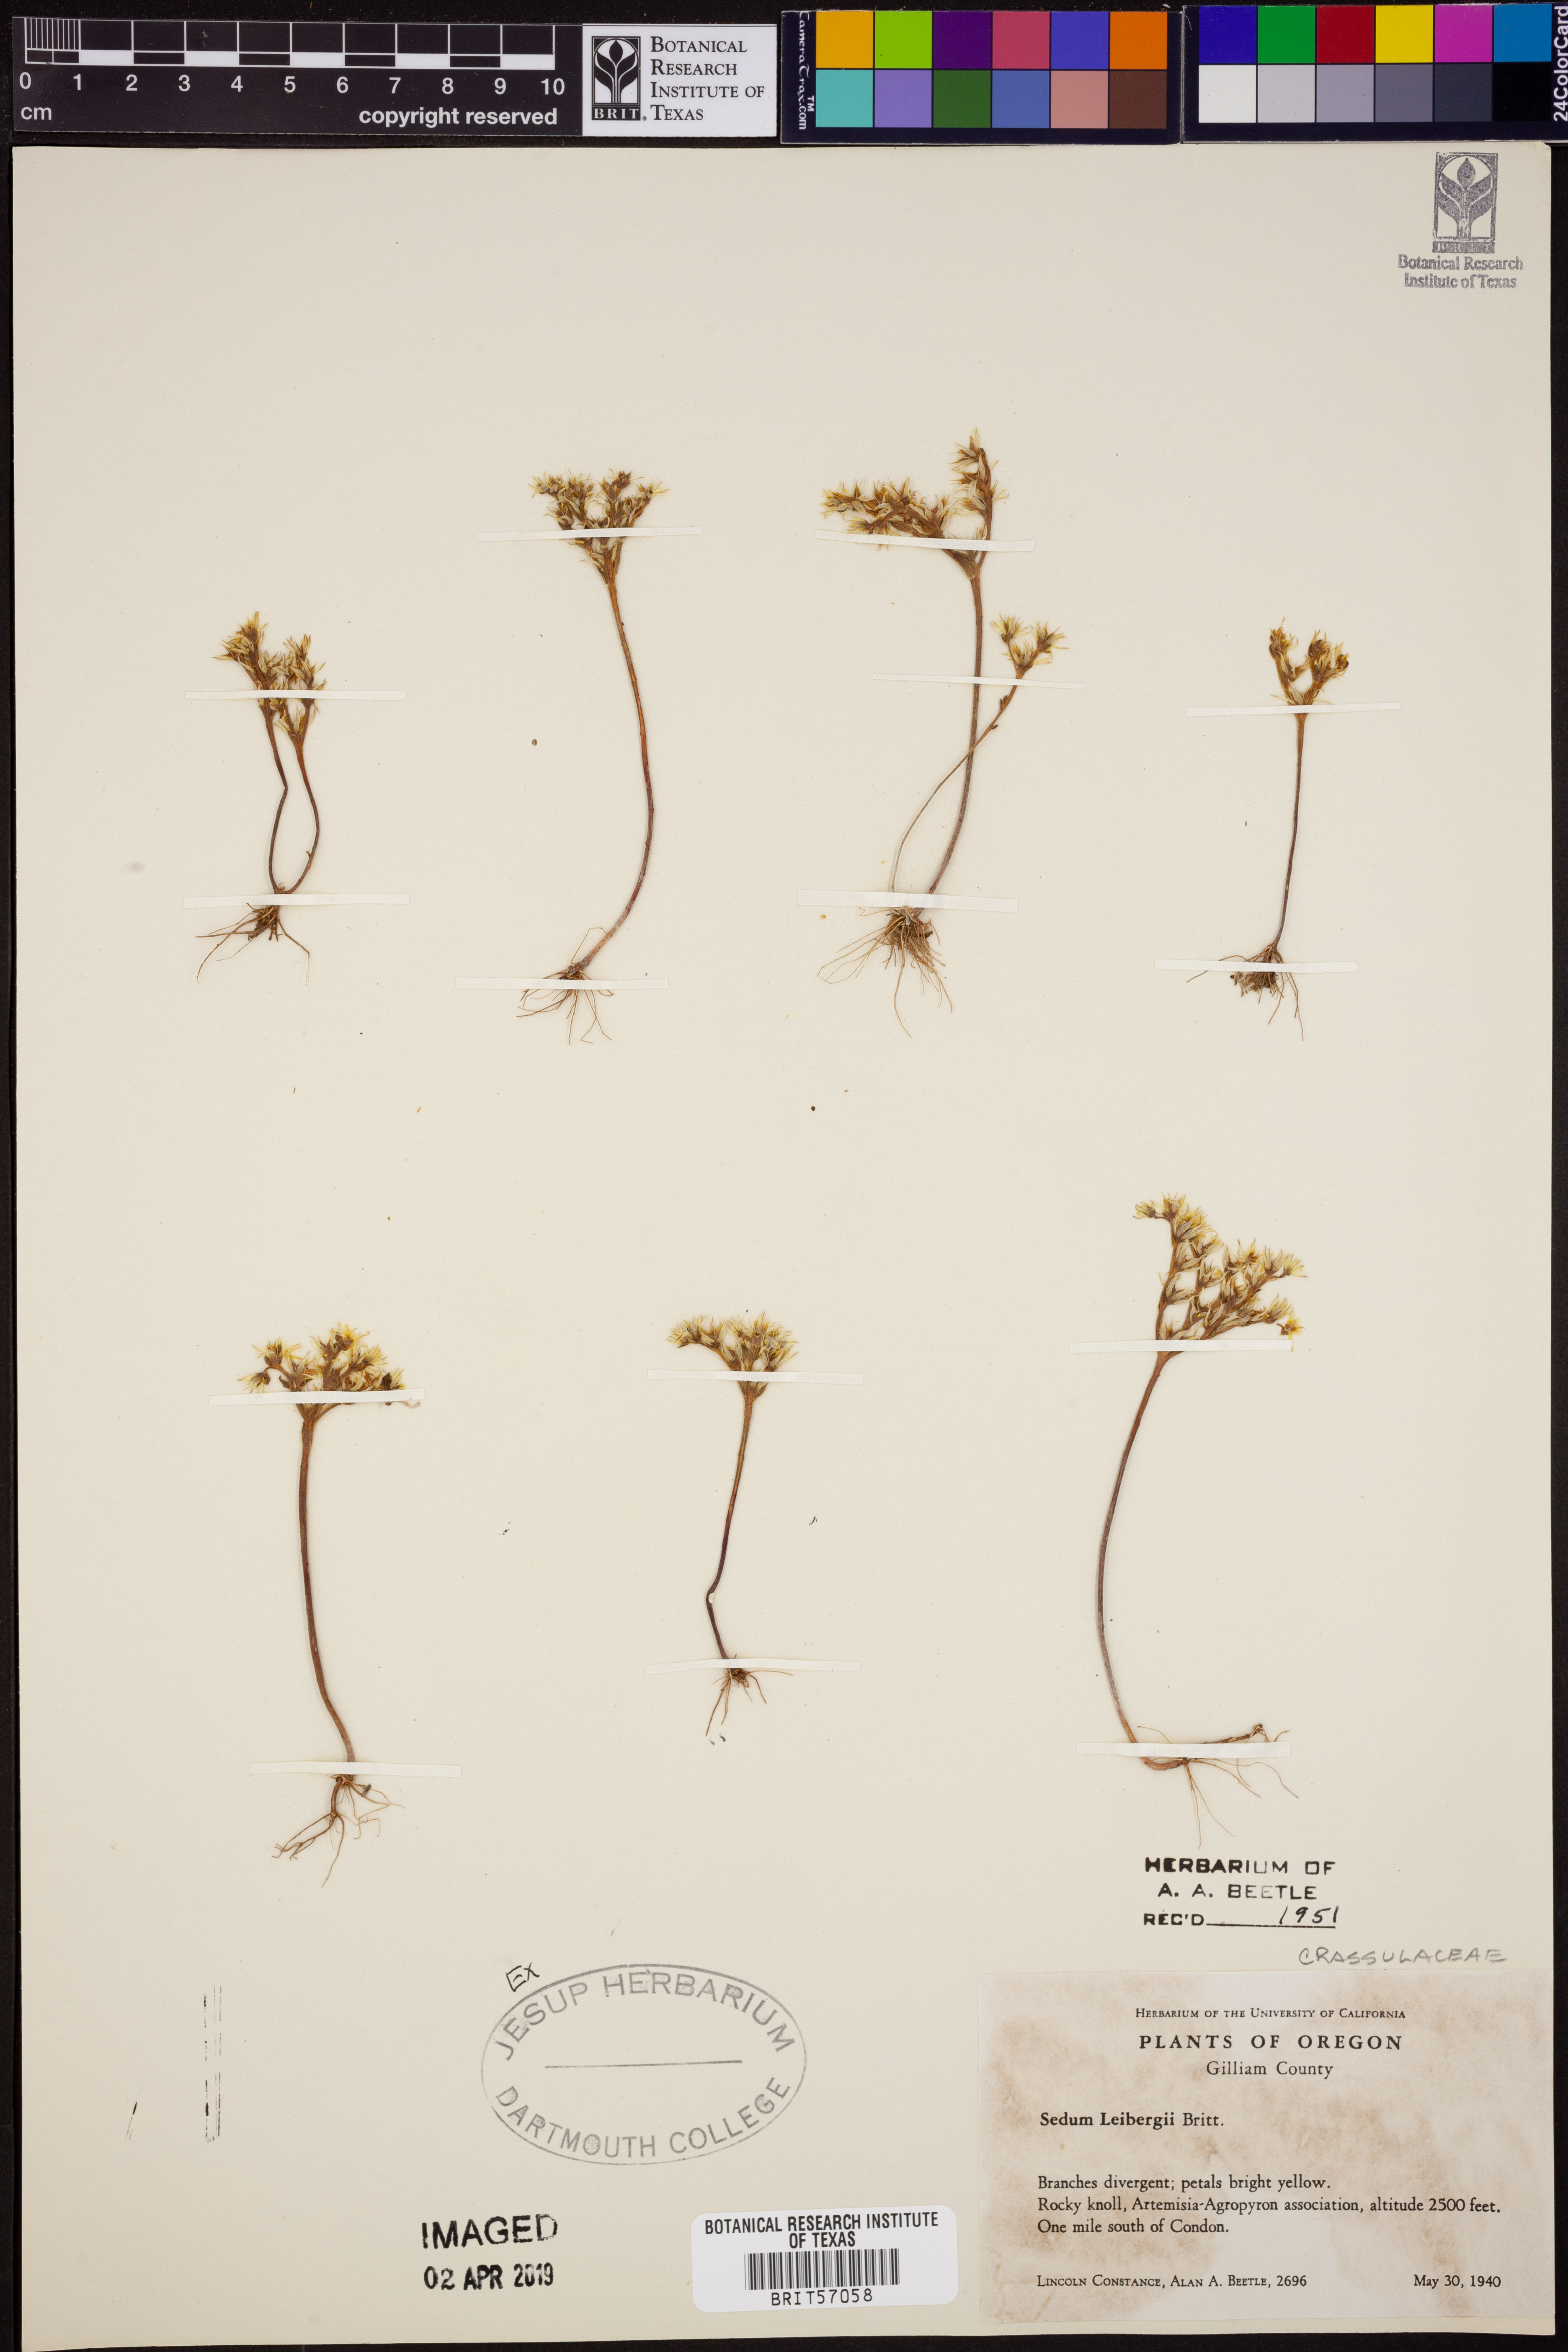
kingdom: Plantae
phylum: Tracheophyta
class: Magnoliopsida
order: Saxifragales
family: Crassulaceae
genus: Sedum
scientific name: Sedum leibergii
